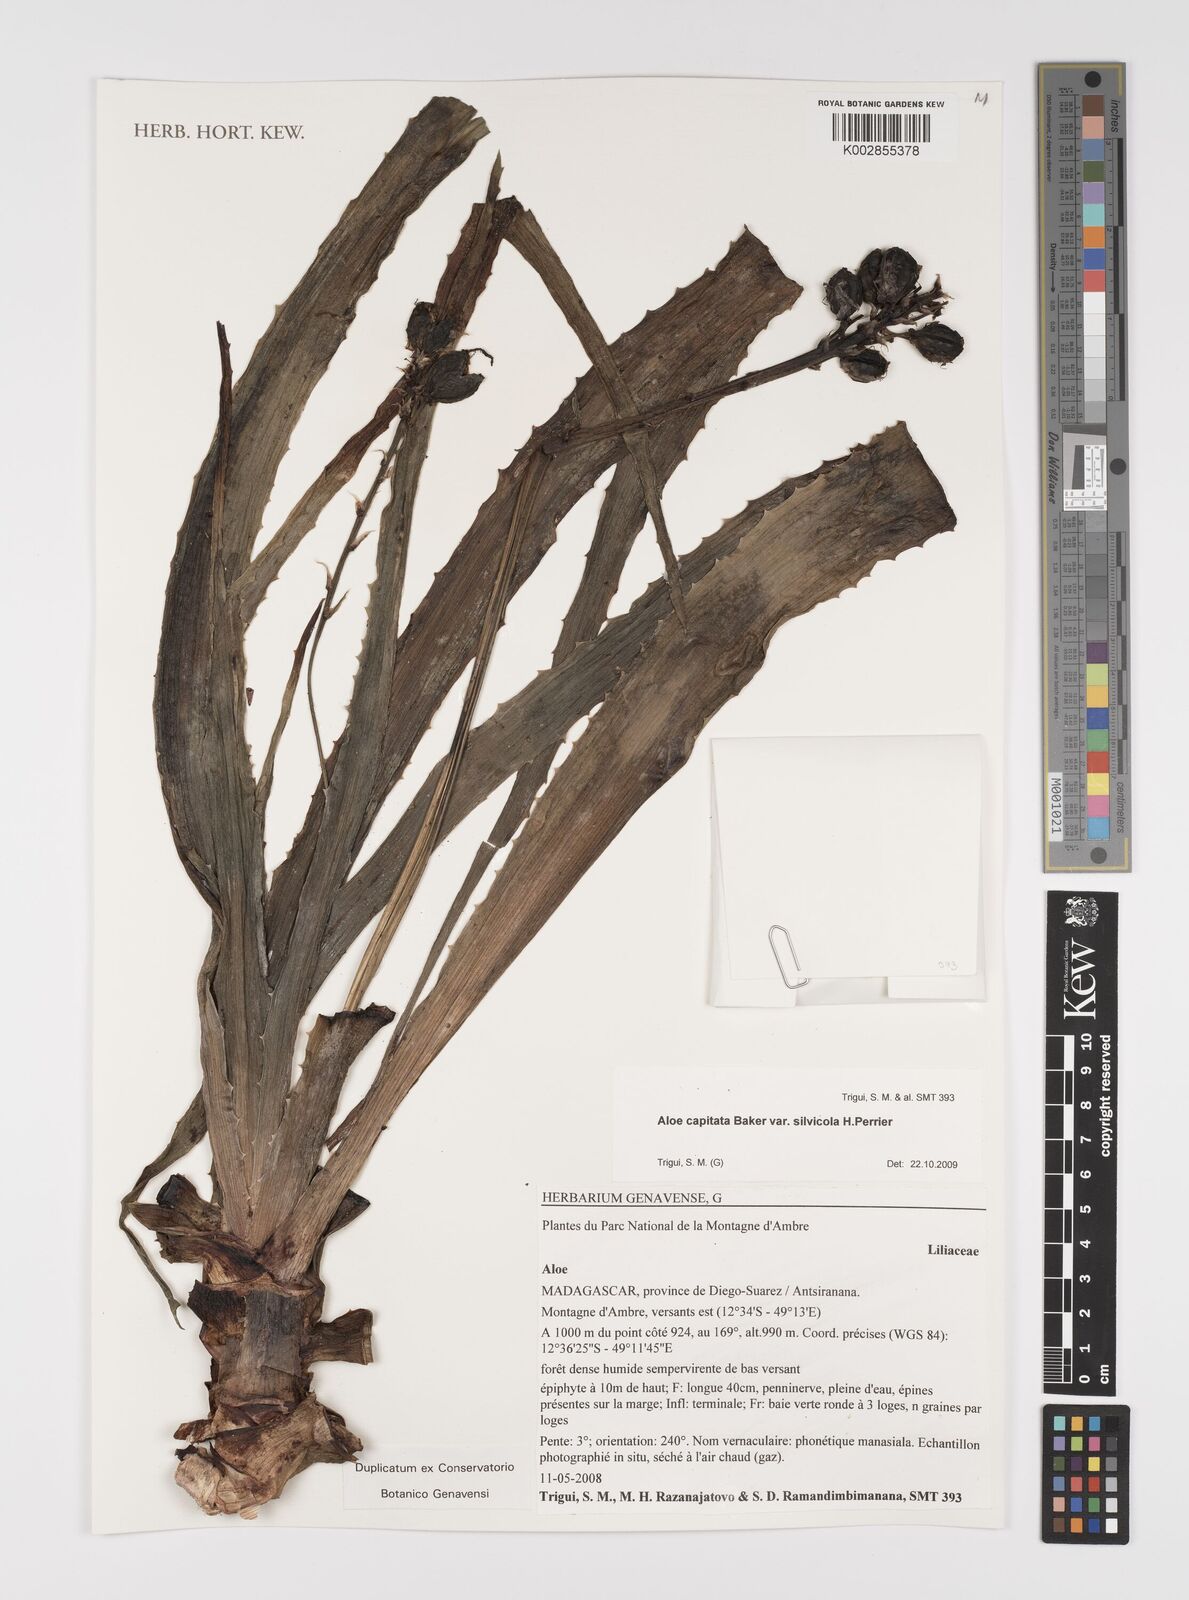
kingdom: Plantae
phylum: Tracheophyta
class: Liliopsida
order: Asparagales
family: Asphodelaceae
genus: Aloe
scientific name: Aloe capitata
